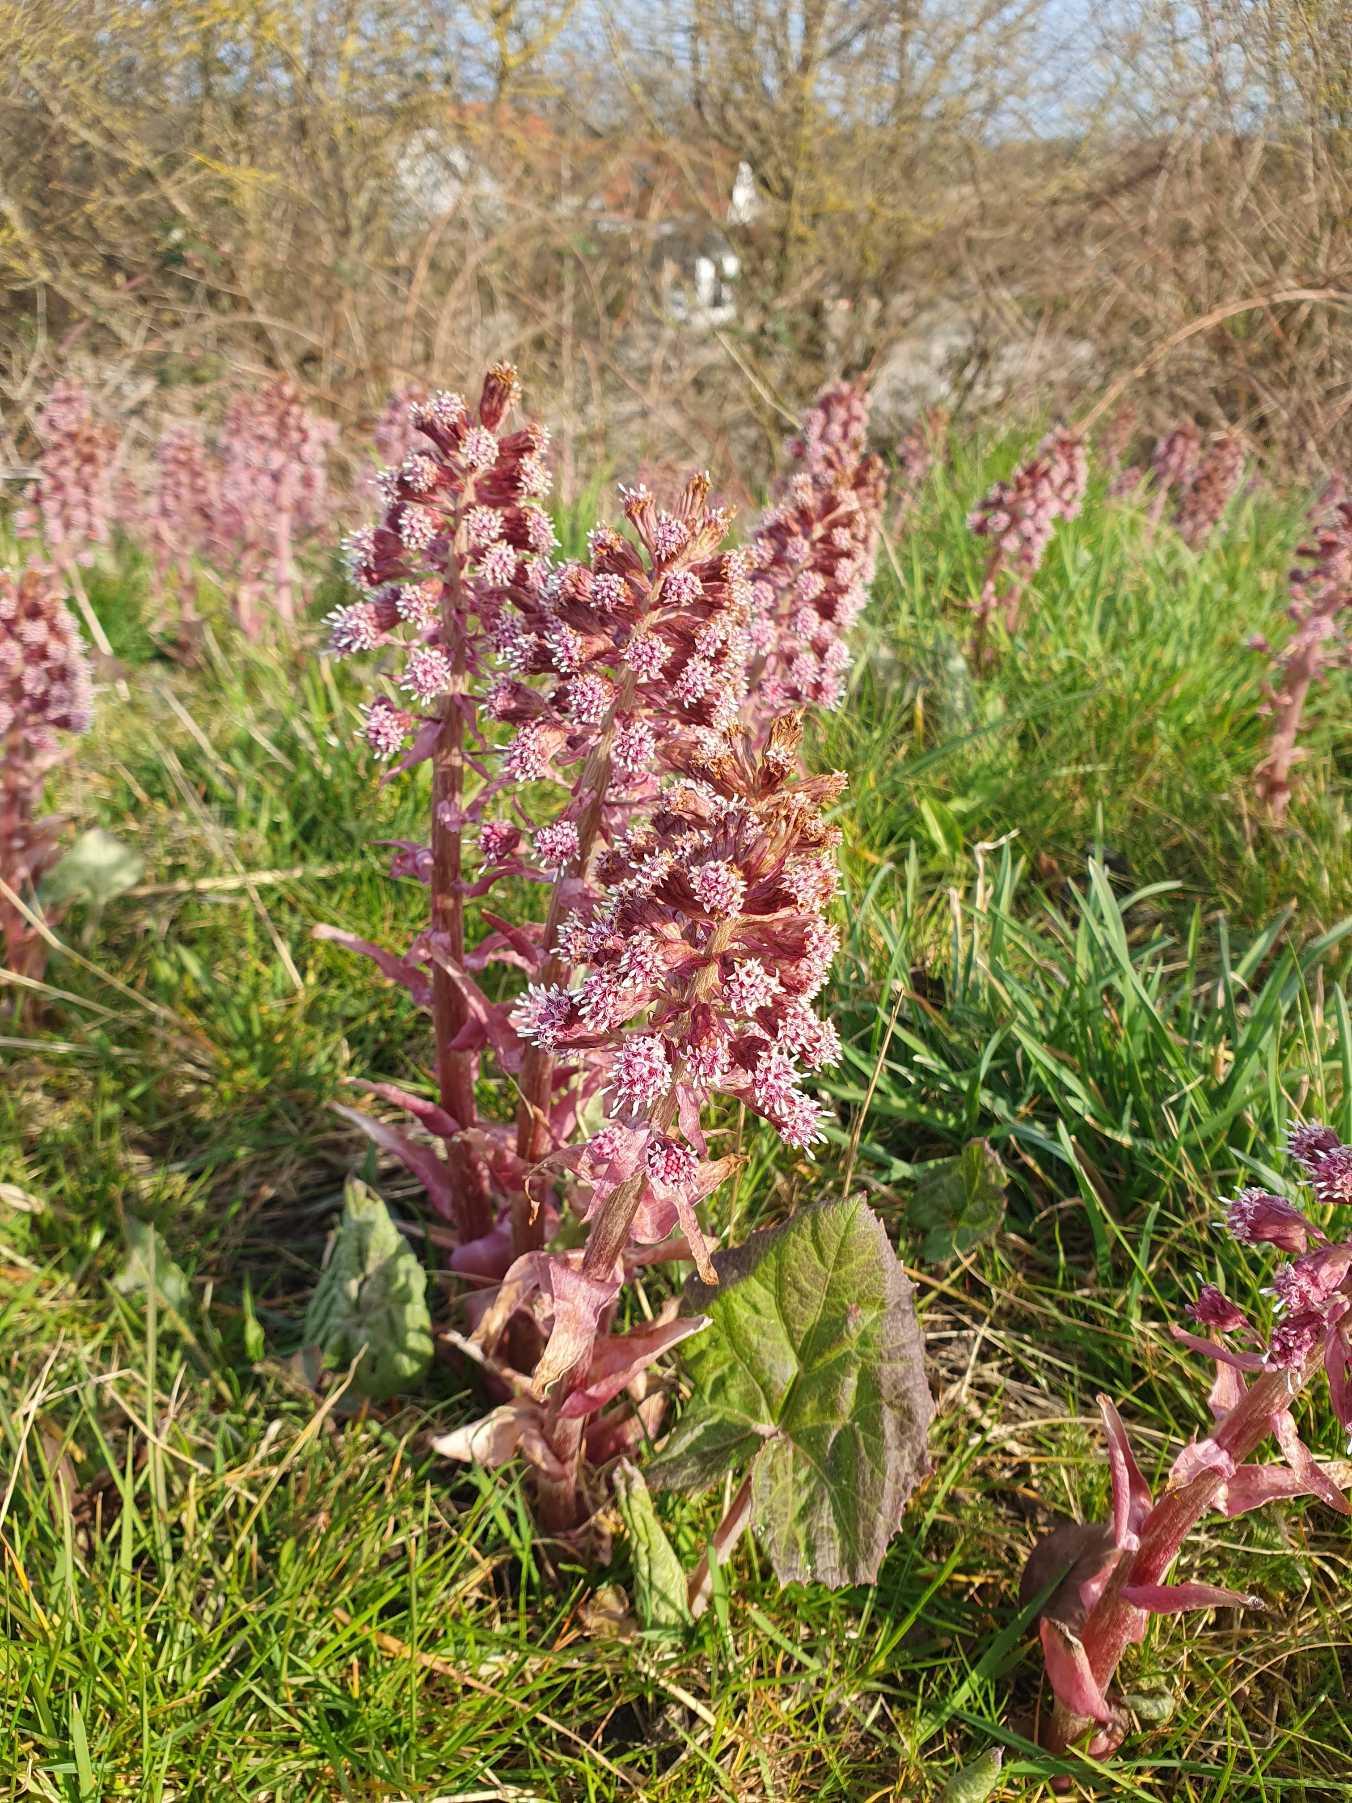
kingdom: Plantae
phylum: Tracheophyta
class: Magnoliopsida
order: Asterales
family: Asteraceae
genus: Petasites
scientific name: Petasites hybridus
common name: Rød hestehov
